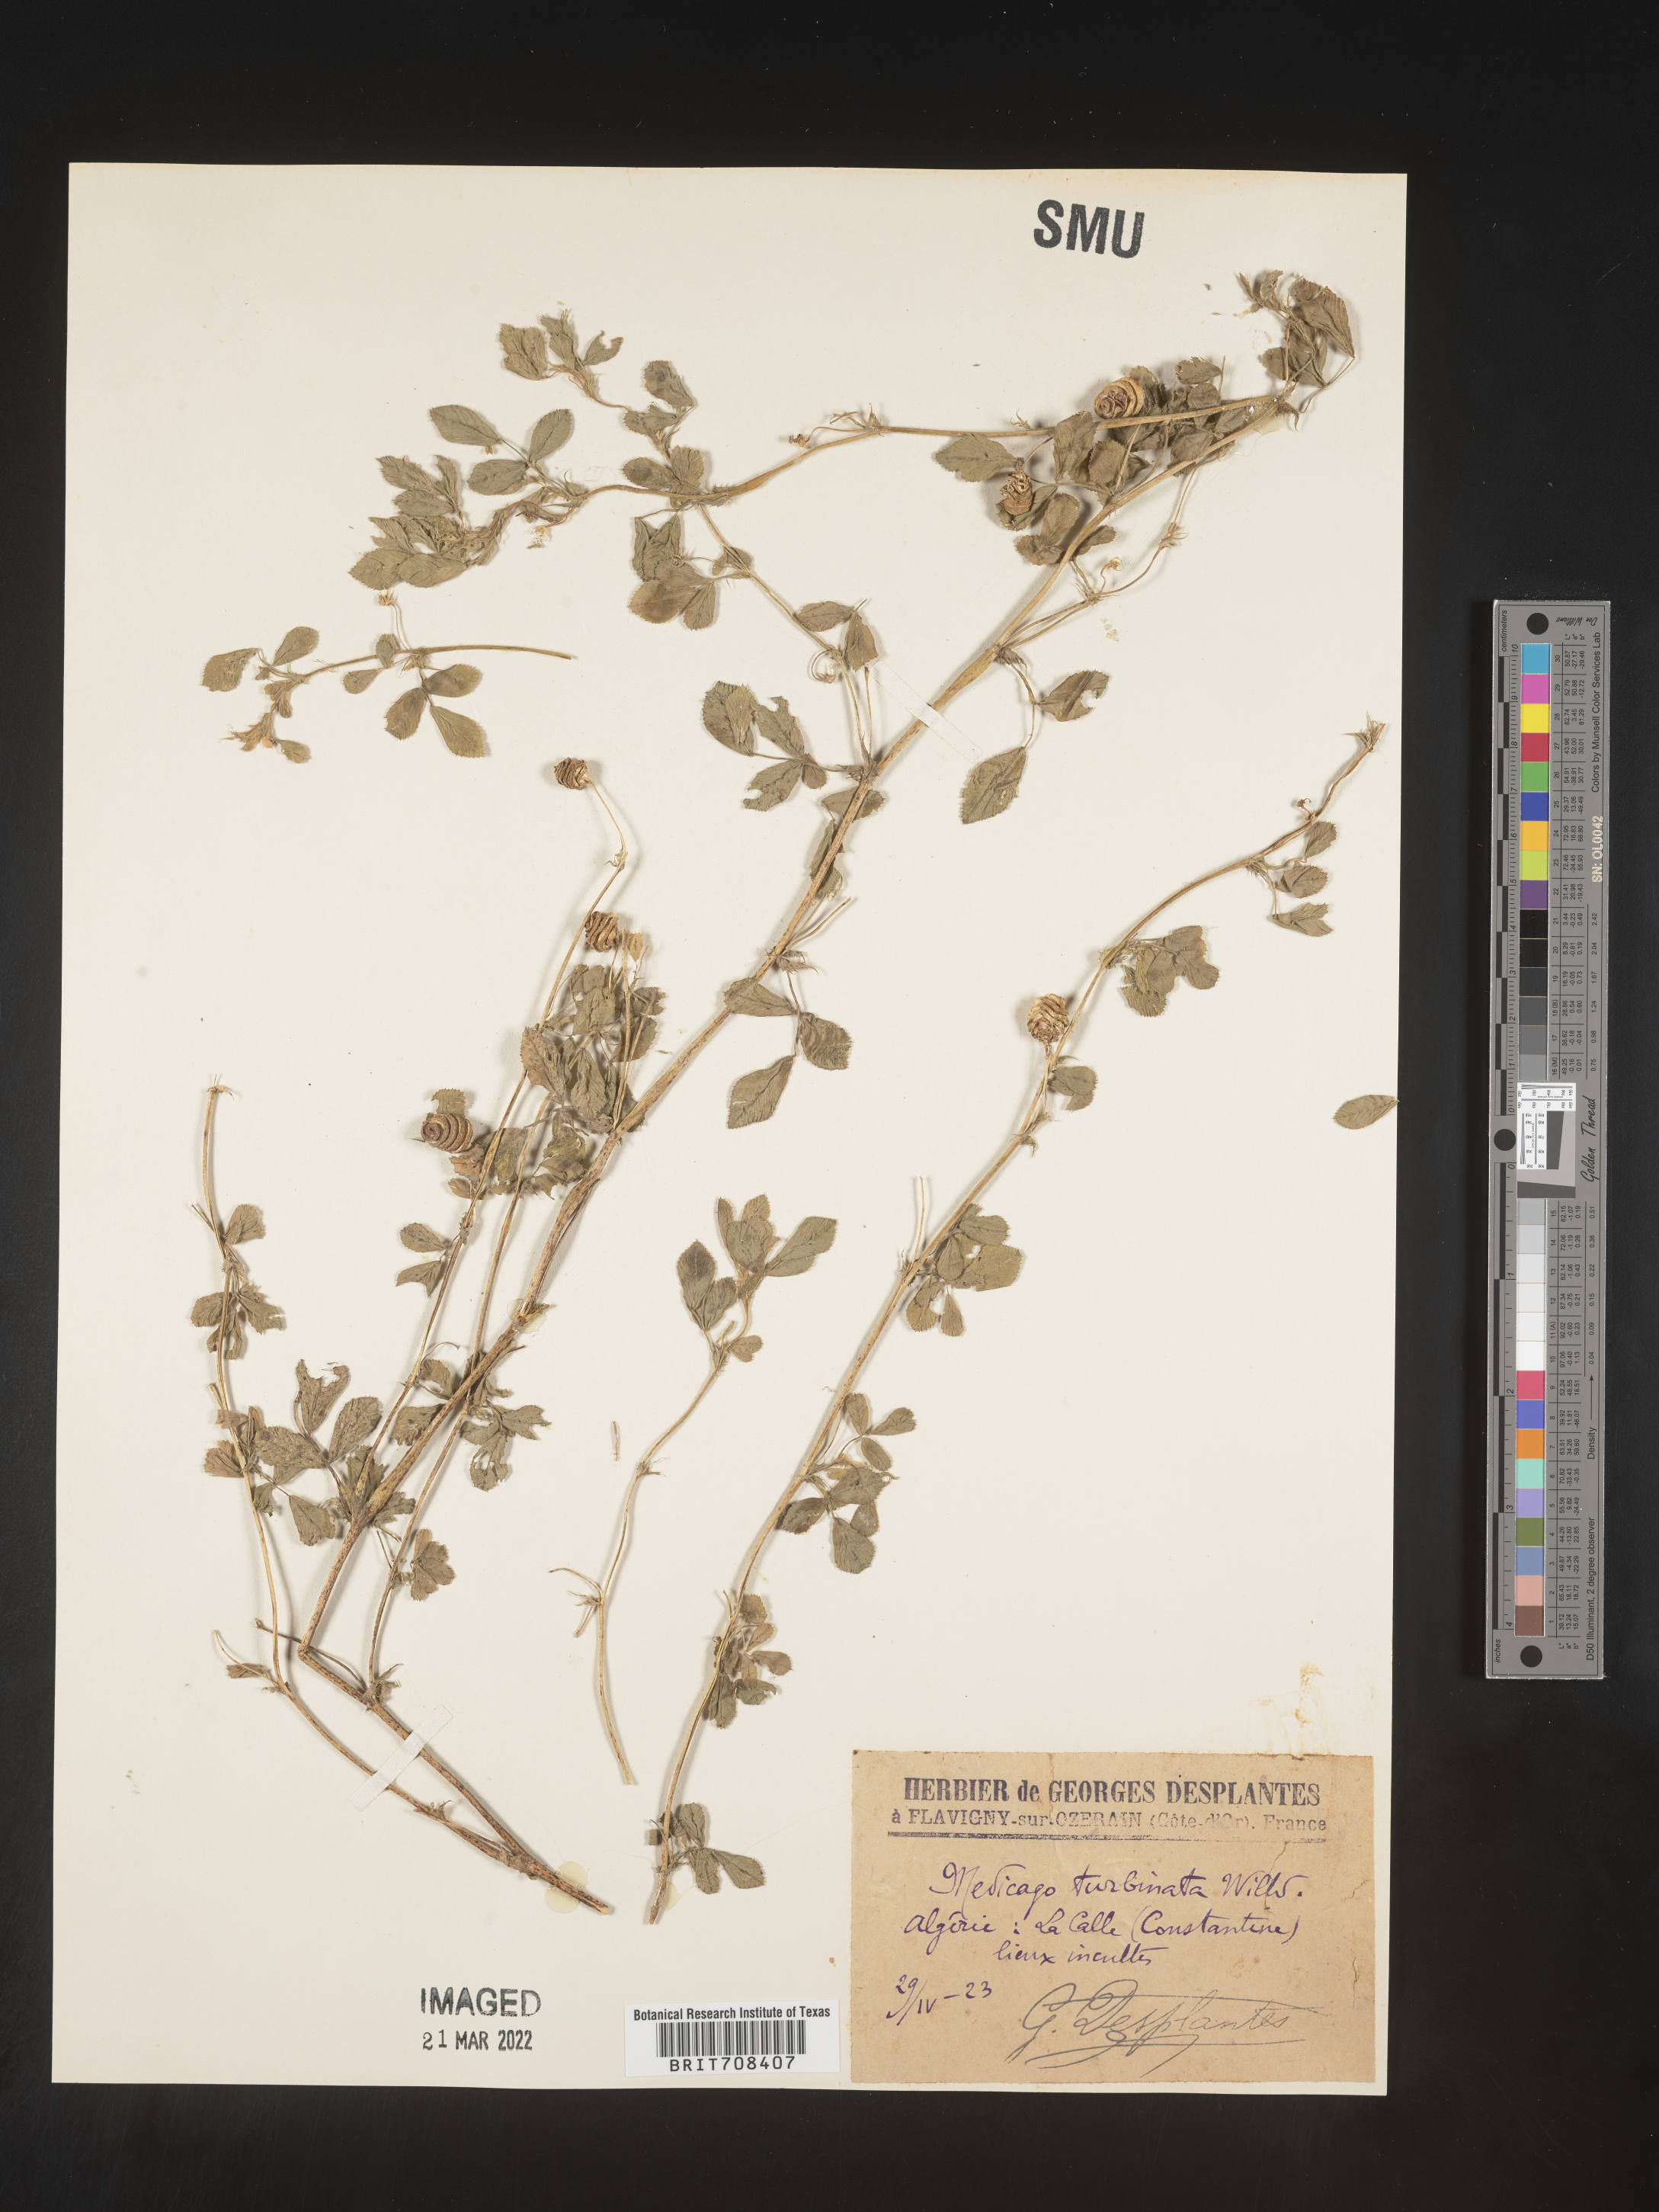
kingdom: Plantae
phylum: Tracheophyta
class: Magnoliopsida
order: Fabales
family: Fabaceae
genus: Medicago
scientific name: Medicago
